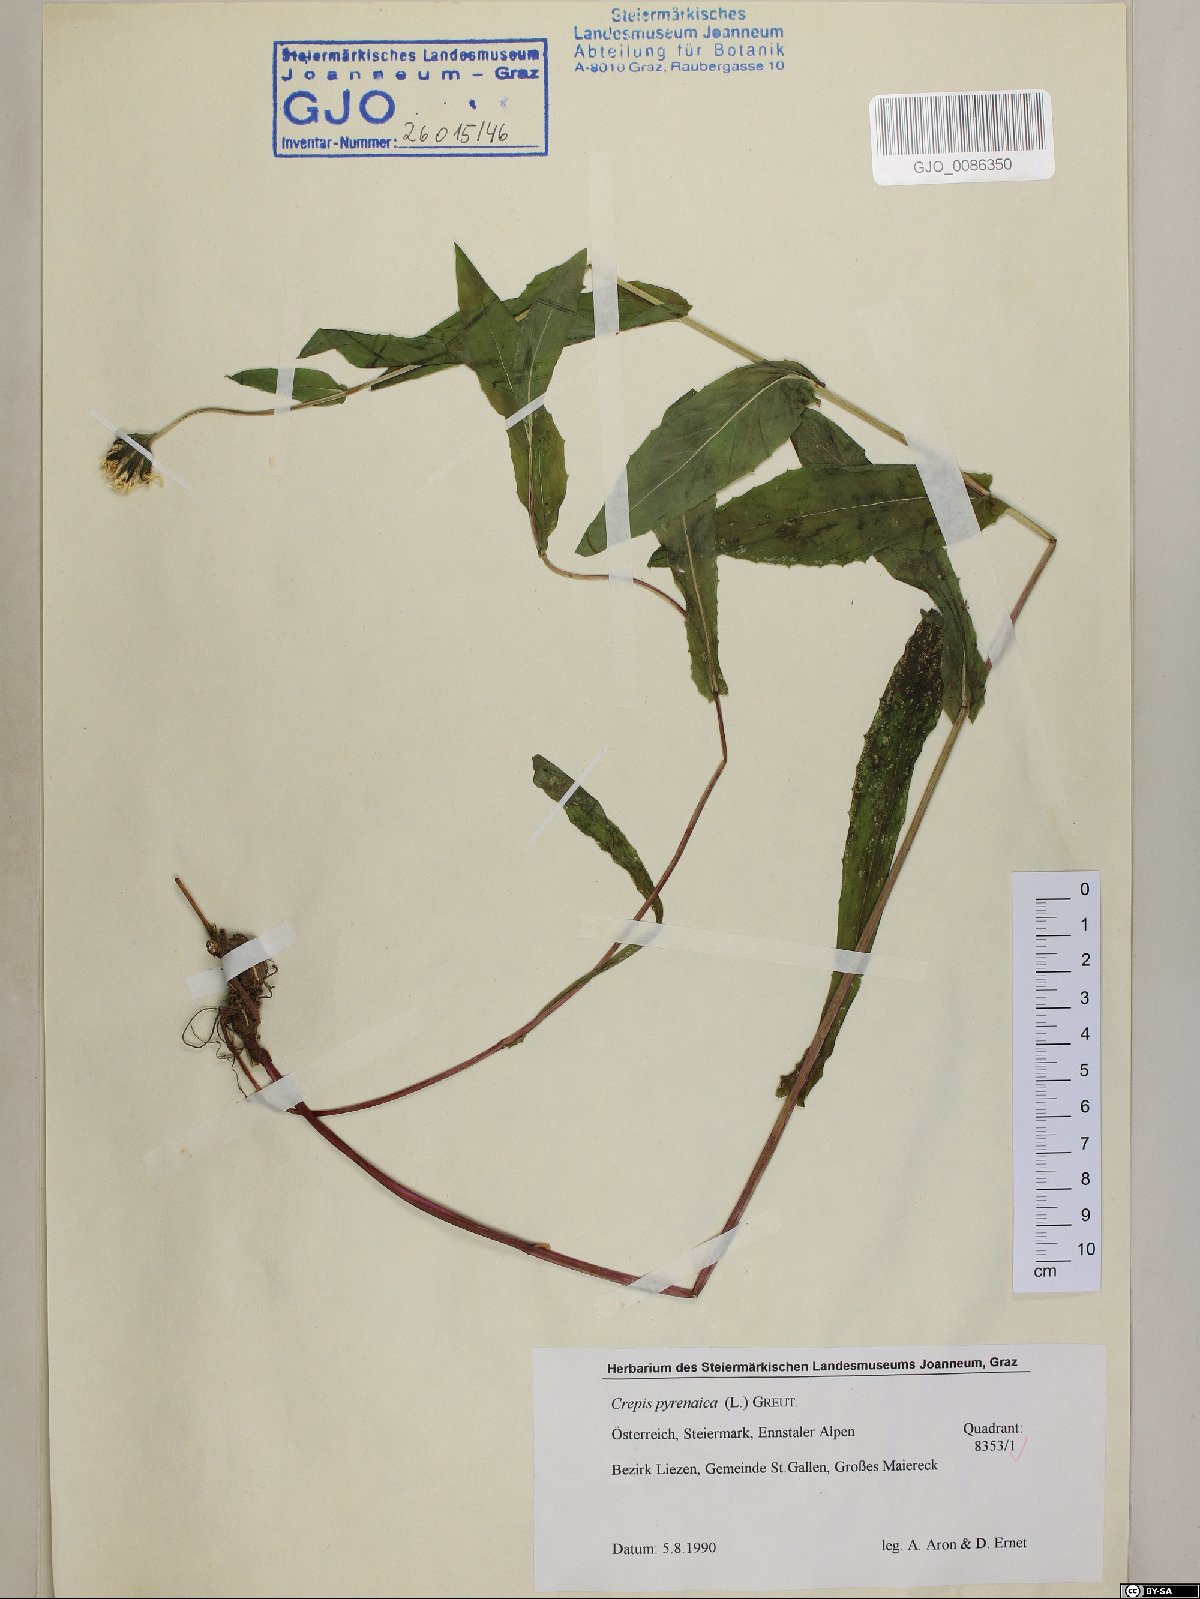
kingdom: Plantae
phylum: Tracheophyta
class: Magnoliopsida
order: Asterales
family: Asteraceae
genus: Crepis
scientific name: Crepis pyrenaica
